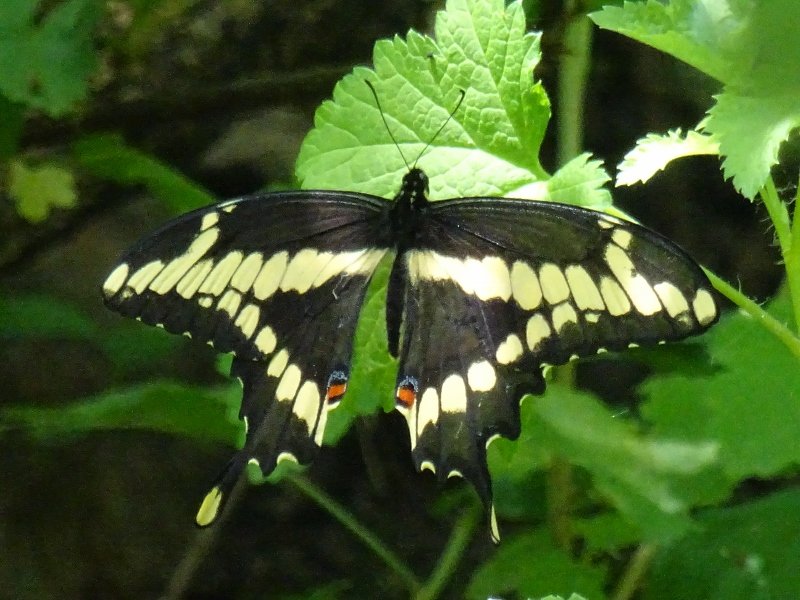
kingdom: Animalia
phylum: Arthropoda
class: Insecta
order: Lepidoptera
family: Papilionidae
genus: Papilio
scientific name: Papilio cresphontes
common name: Eastern Giant Swallowtail
